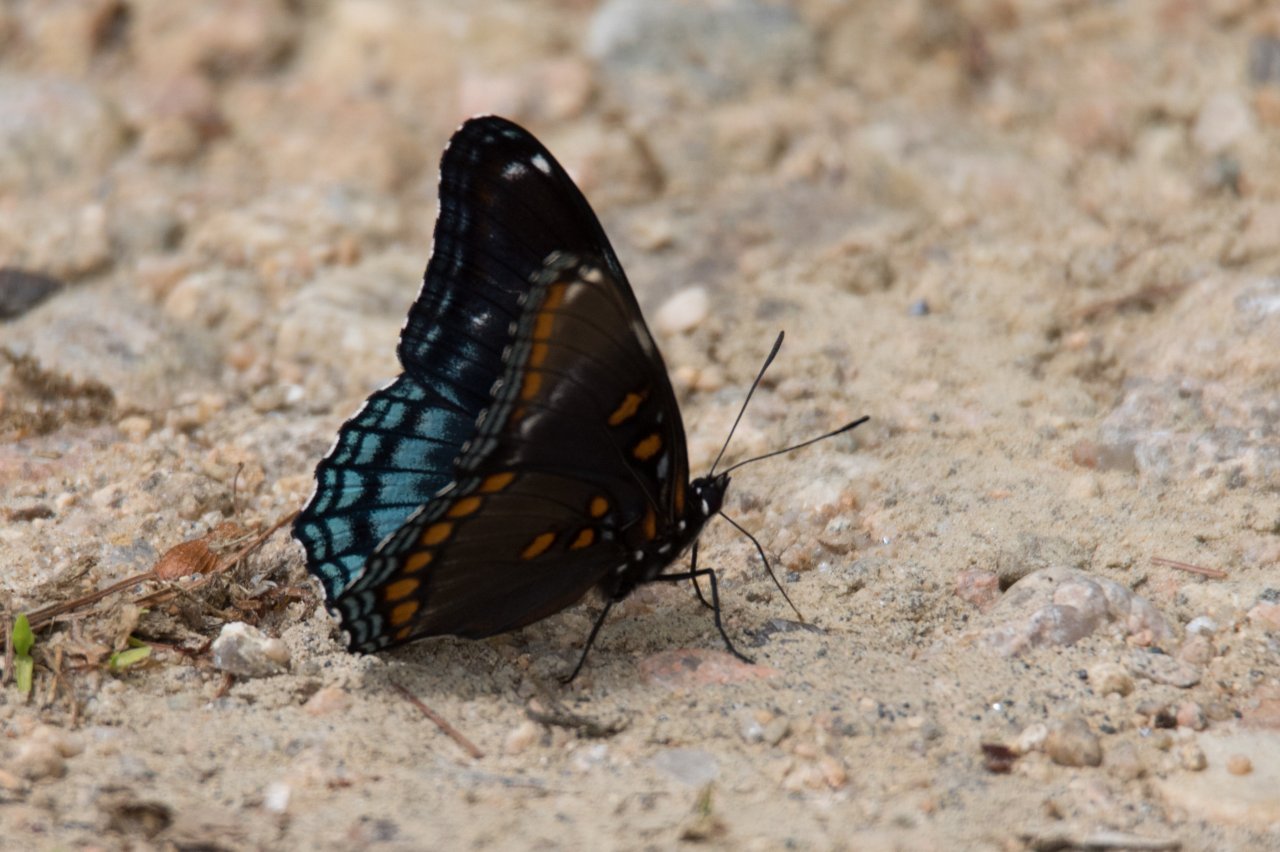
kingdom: Animalia
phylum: Arthropoda
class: Insecta
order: Lepidoptera
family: Nymphalidae
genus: Limenitis
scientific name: Limenitis astyanax
